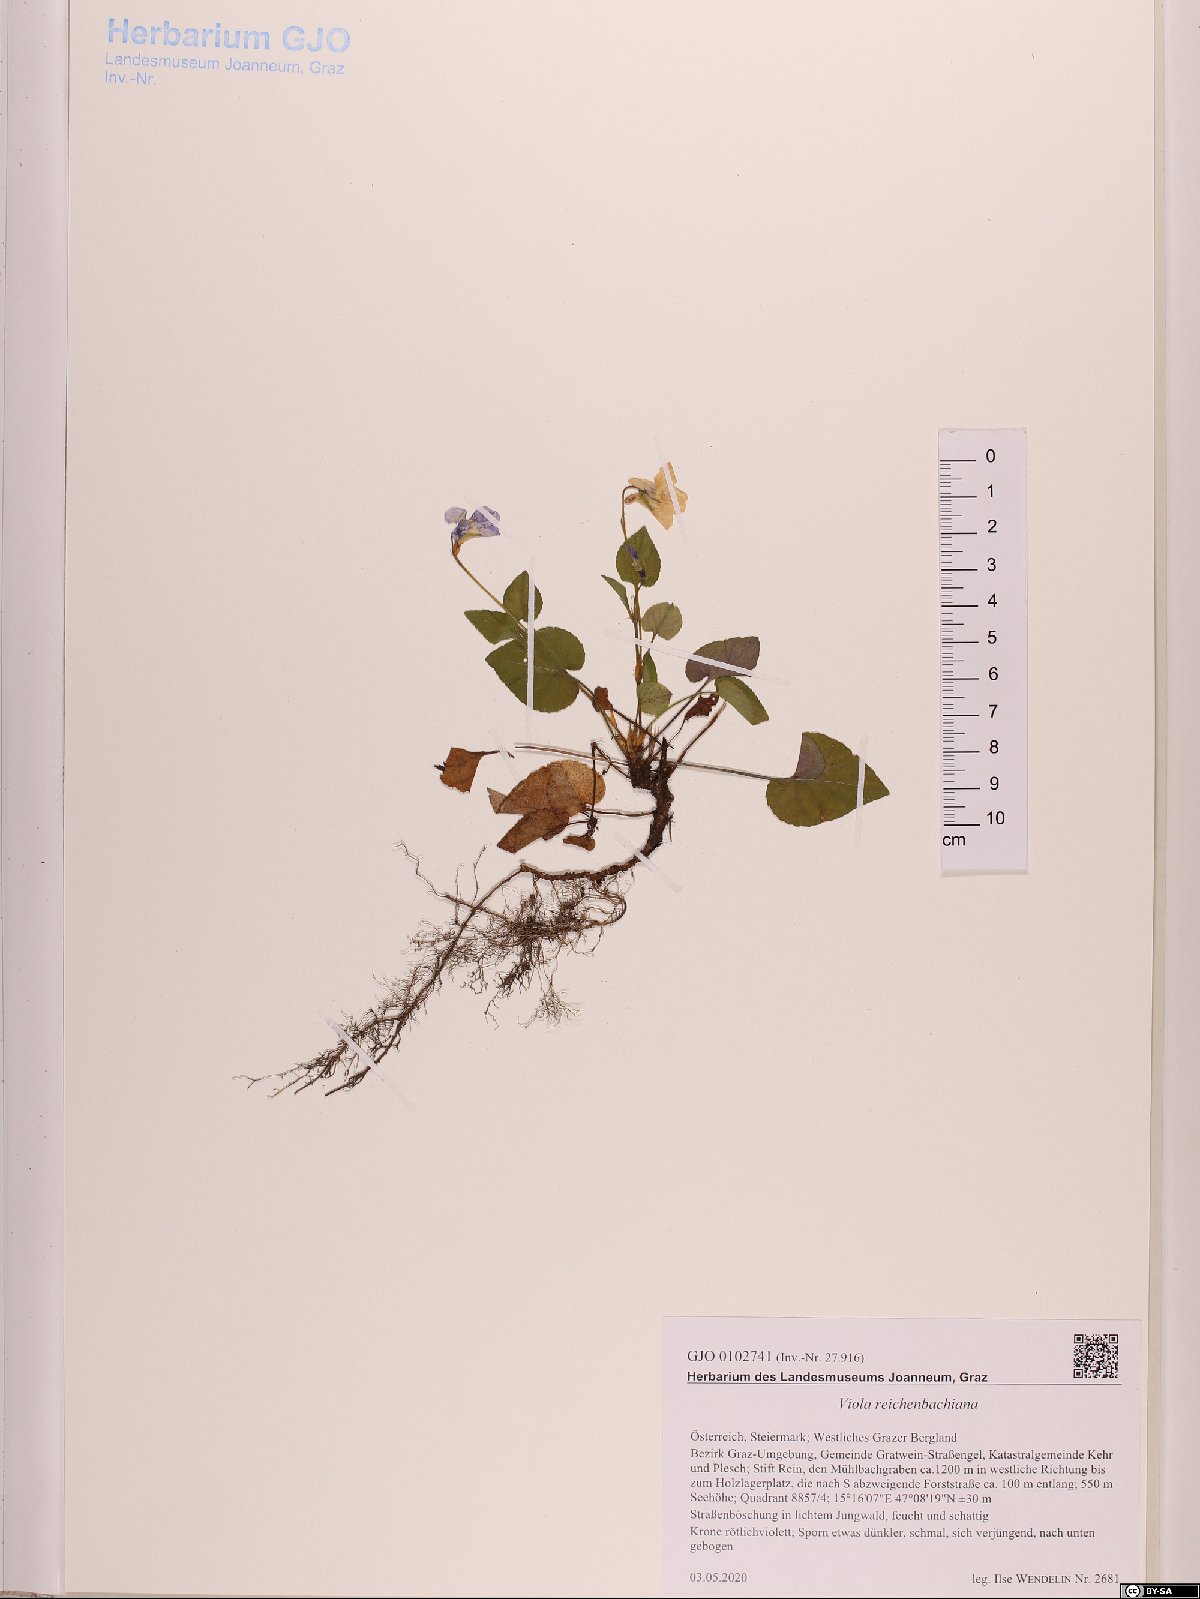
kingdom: Plantae
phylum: Tracheophyta
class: Magnoliopsida
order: Malpighiales
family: Violaceae
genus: Viola
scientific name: Viola reichenbachiana
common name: Early dog-violet
